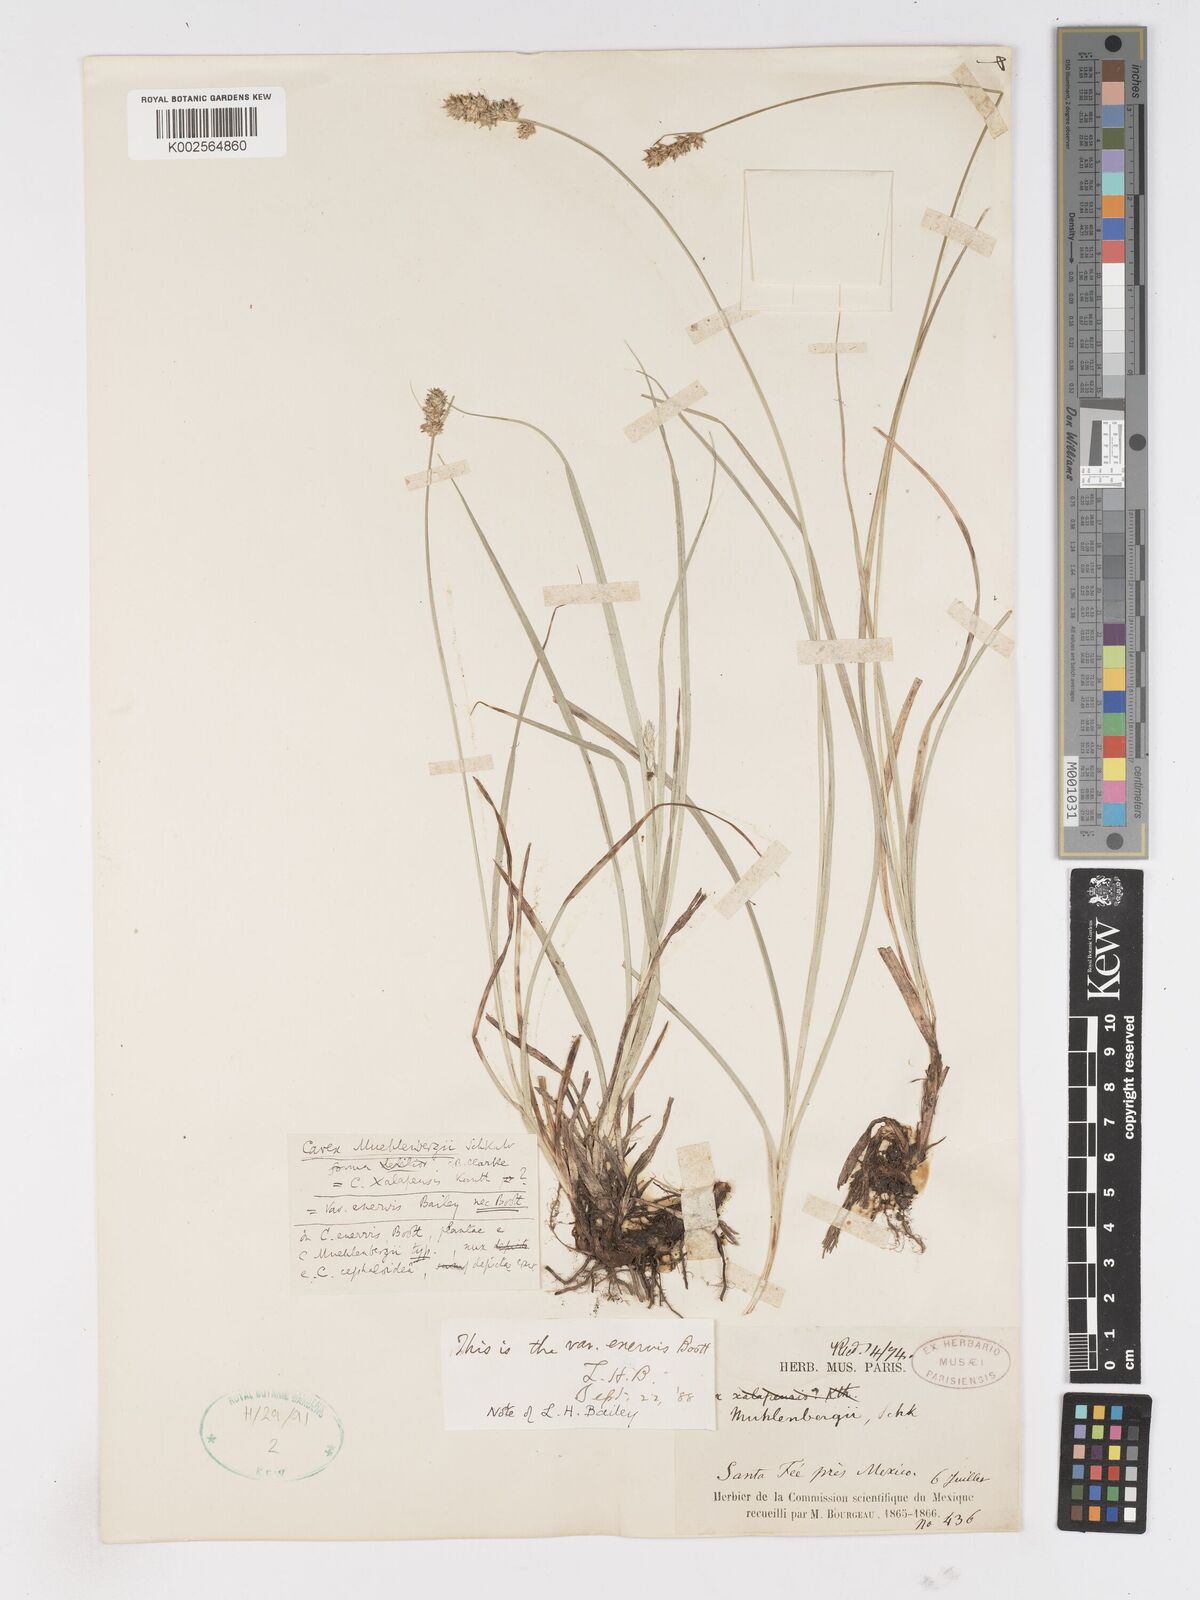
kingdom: Plantae
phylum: Tracheophyta
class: Liliopsida
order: Poales
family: Cyperaceae
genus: Carex
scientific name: Carex vulpinoidea
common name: American fox-sedge
